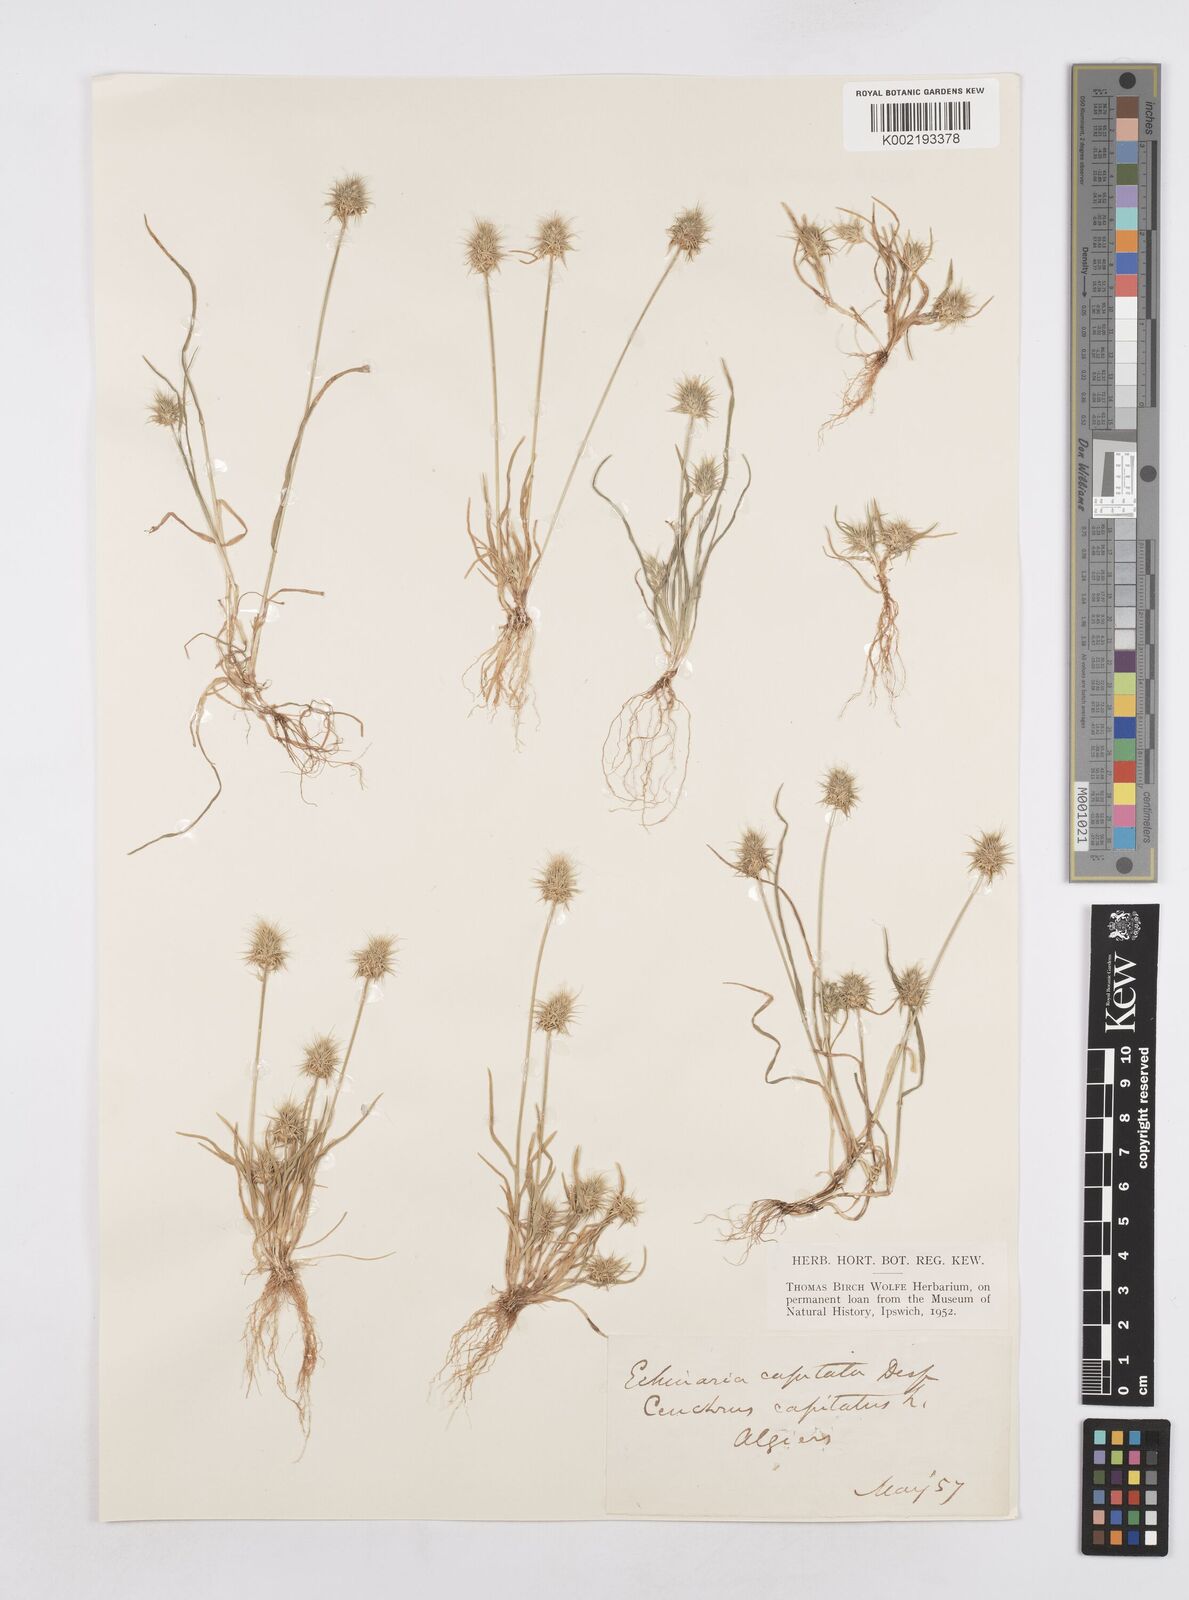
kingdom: Plantae
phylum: Tracheophyta
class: Liliopsida
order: Poales
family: Poaceae
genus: Echinaria
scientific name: Echinaria capitata
